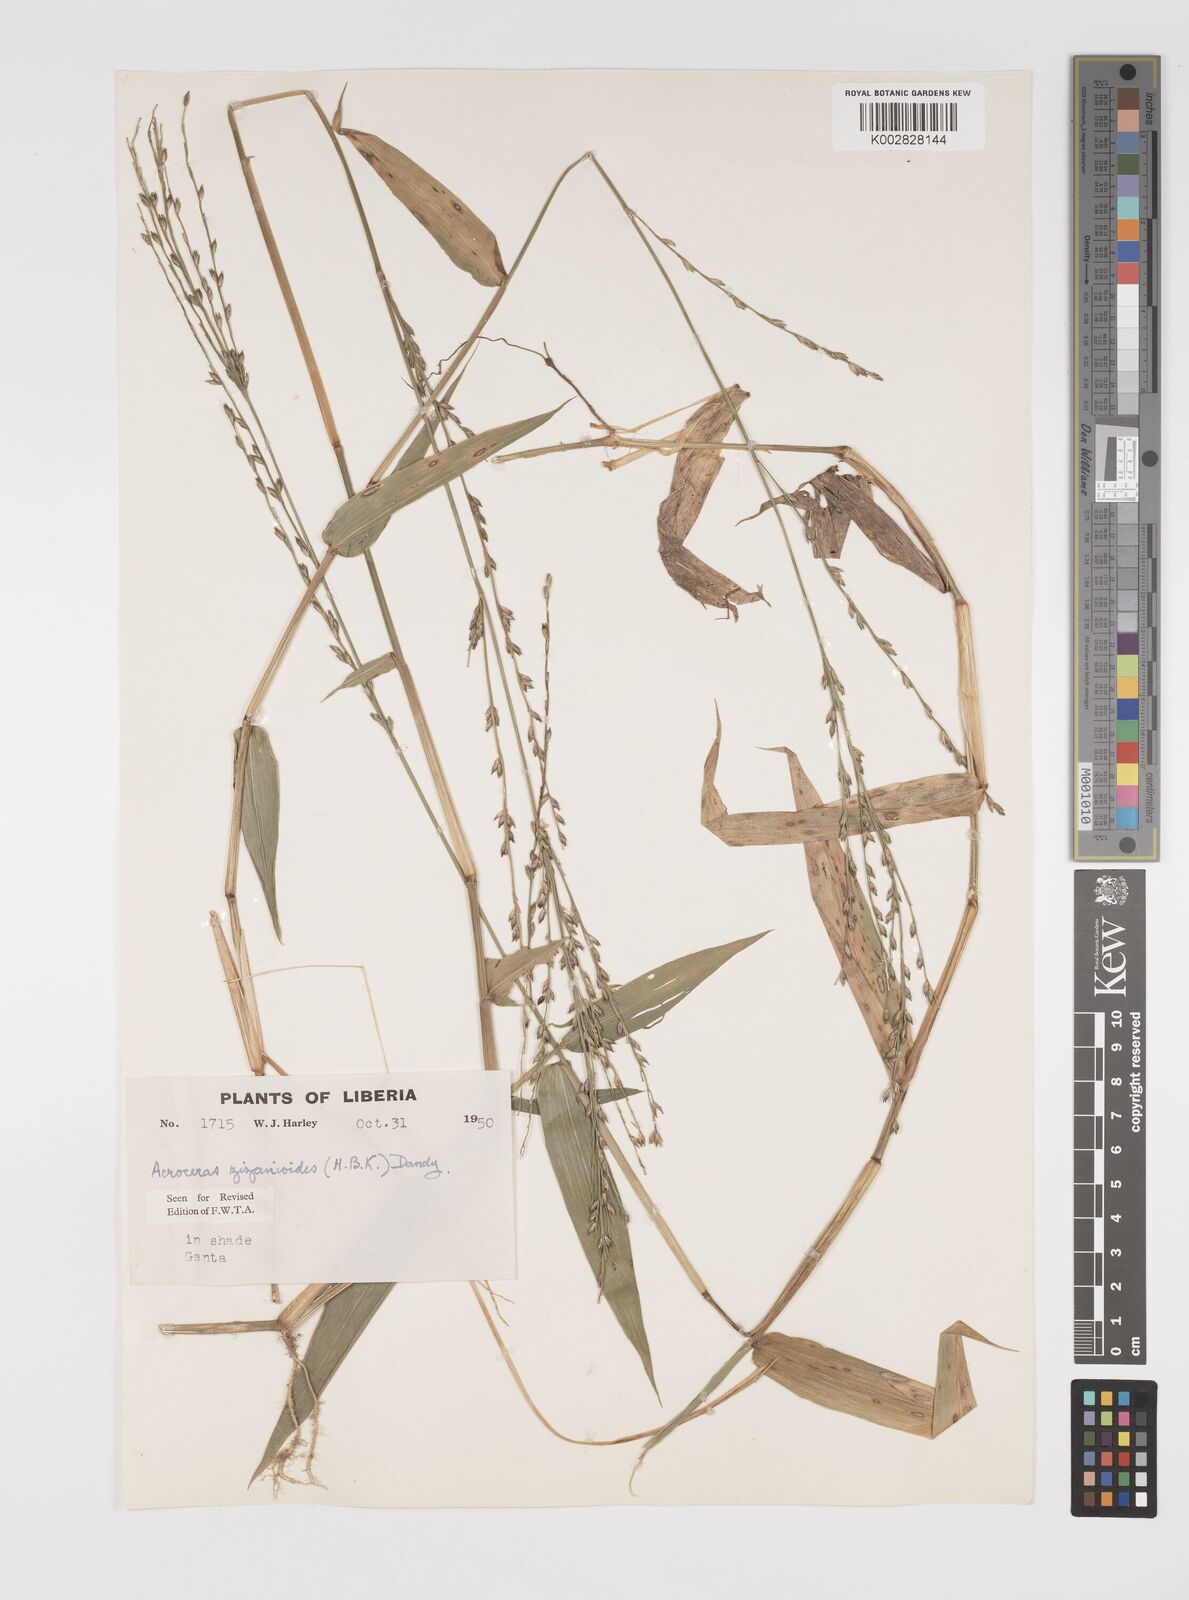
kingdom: Plantae
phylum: Tracheophyta
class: Liliopsida
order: Poales
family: Poaceae
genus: Acroceras
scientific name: Acroceras zizanioides
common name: Oat grass
